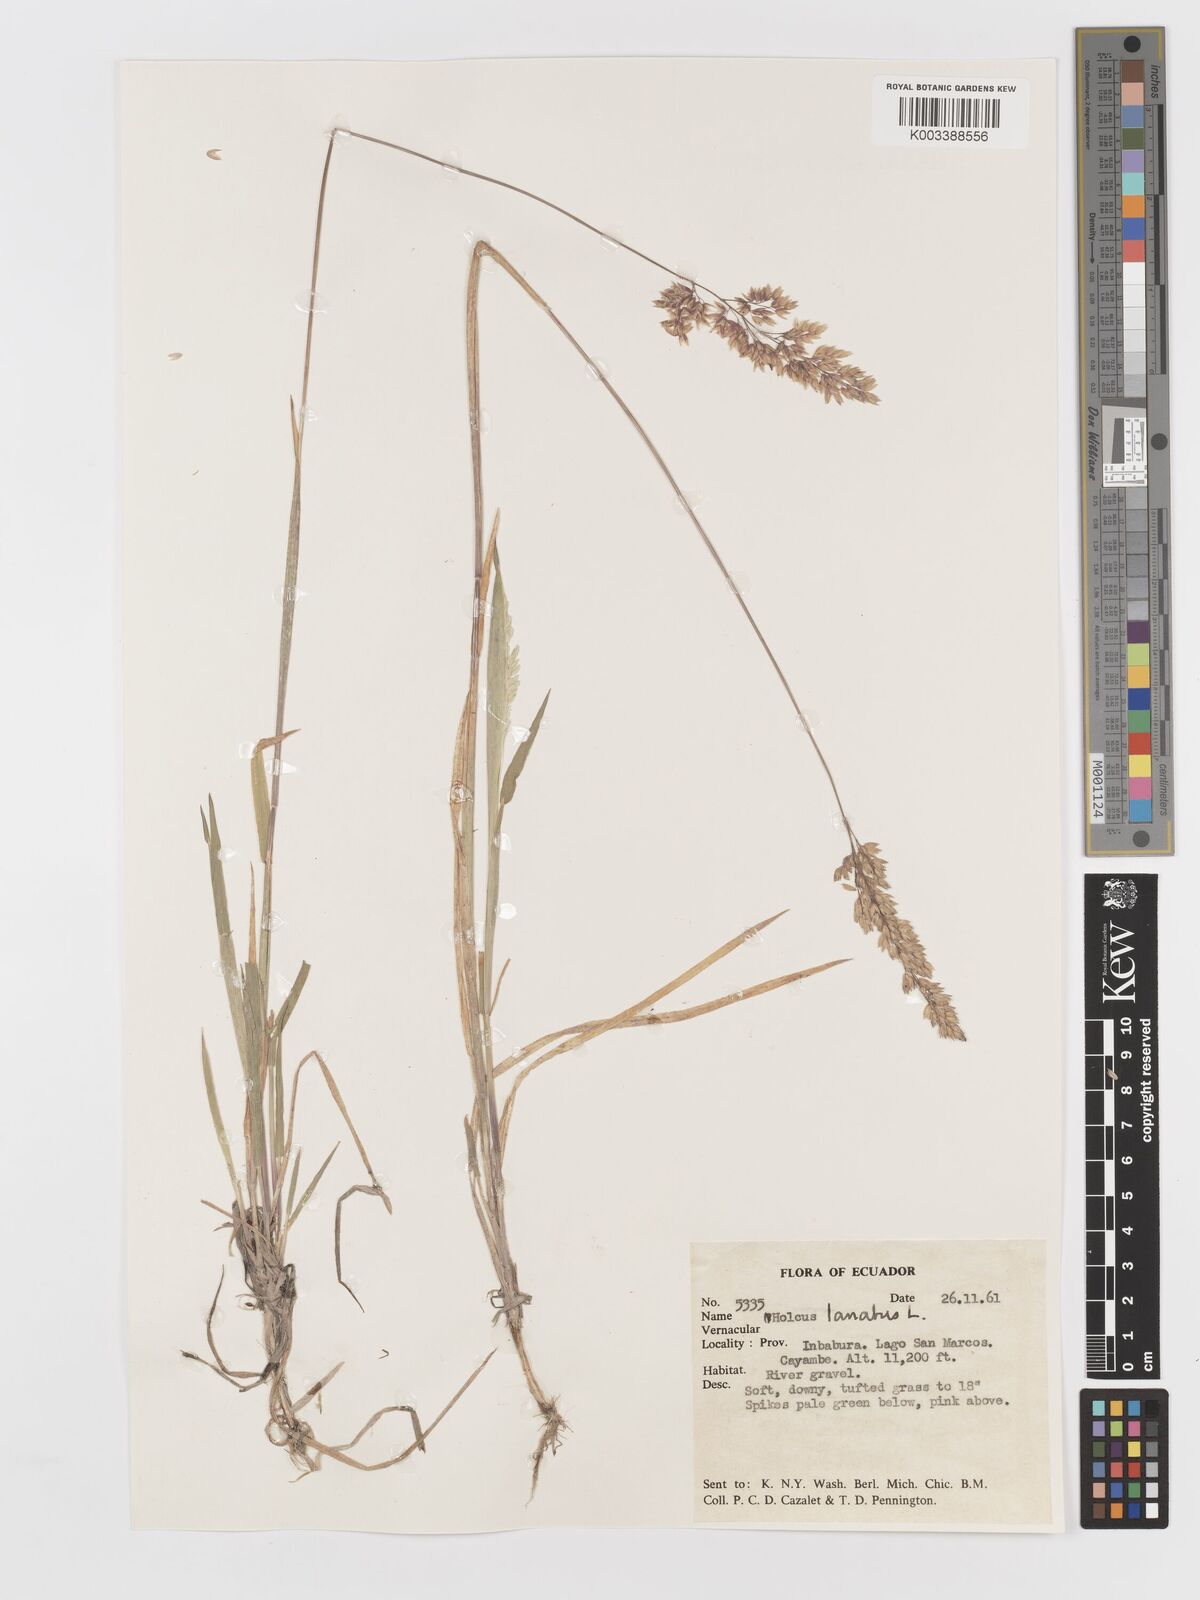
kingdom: Plantae
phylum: Tracheophyta
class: Liliopsida
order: Poales
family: Poaceae
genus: Holcus
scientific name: Holcus lanatus
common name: Yorkshire-fog
